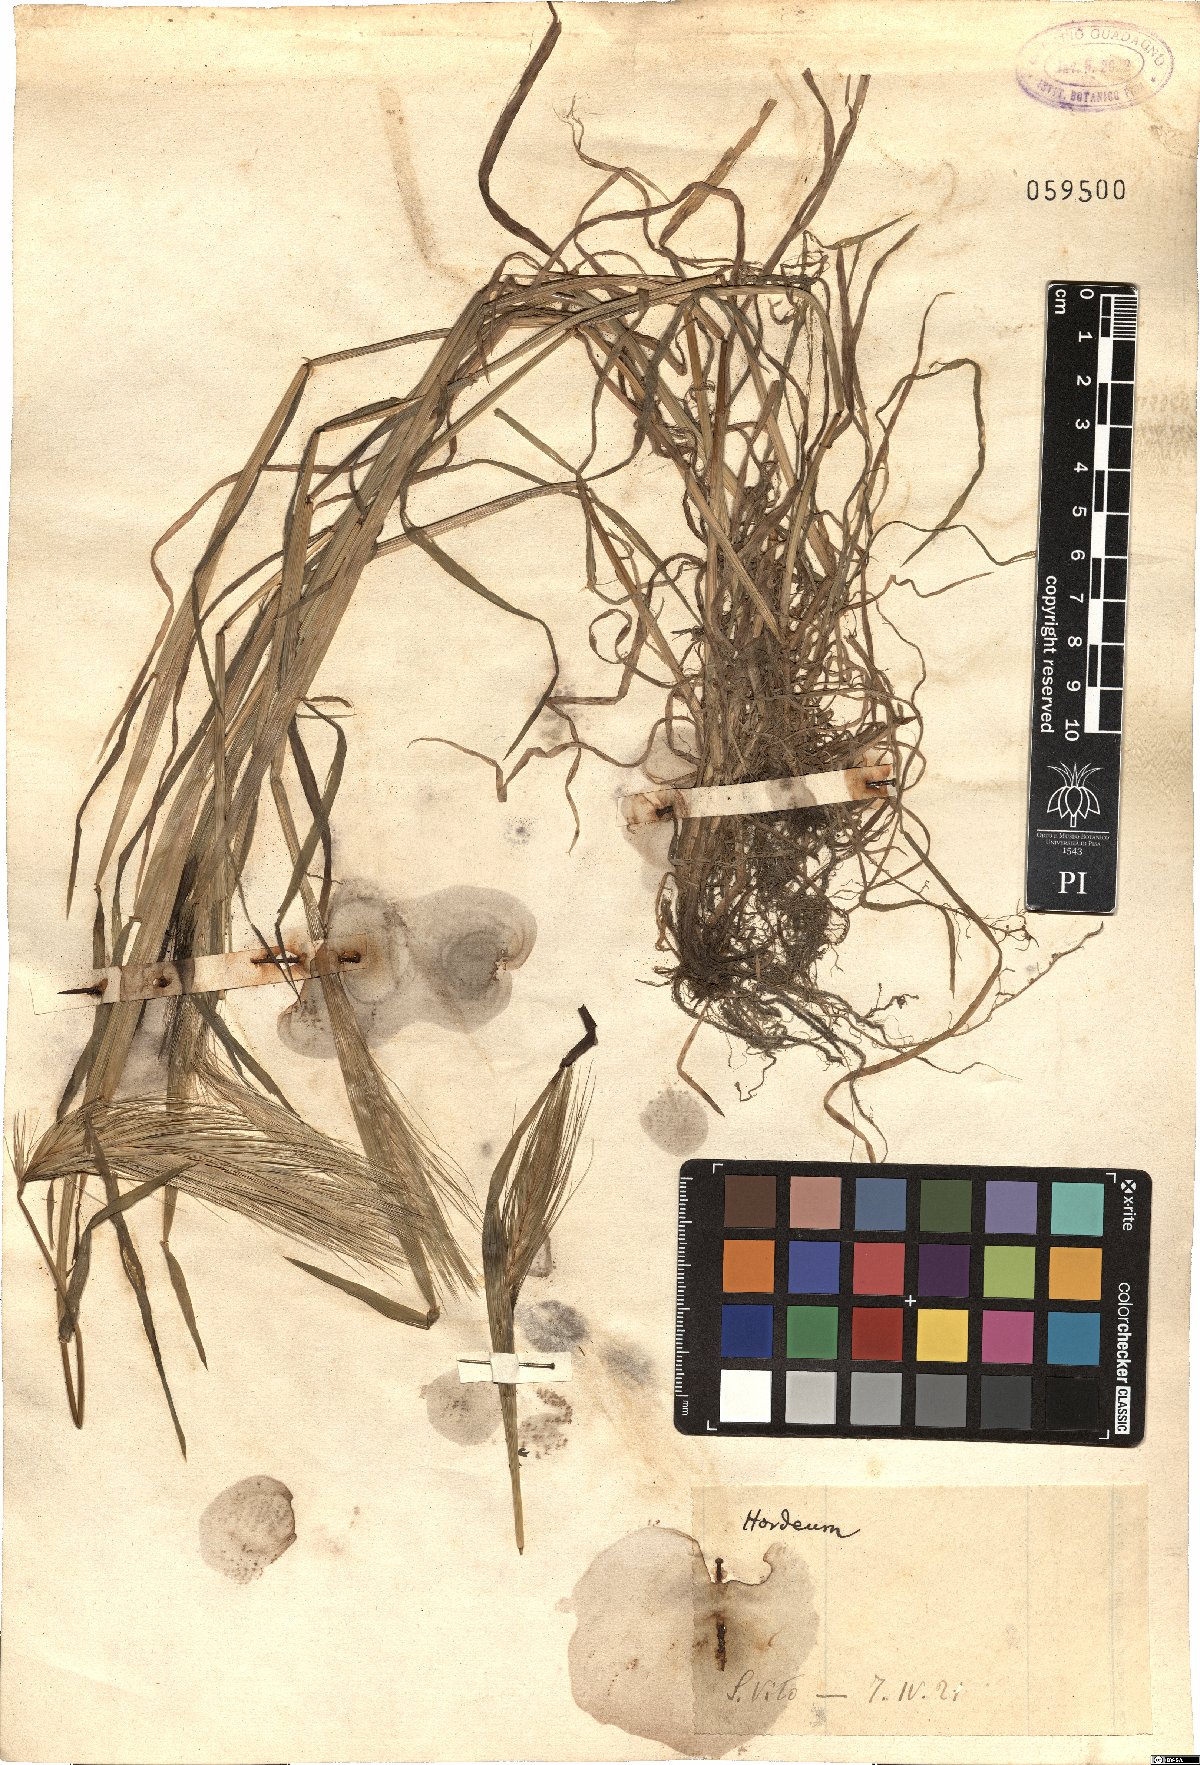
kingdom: Plantae
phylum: Tracheophyta
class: Liliopsida
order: Poales
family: Poaceae
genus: Hordeum
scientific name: Hordeum
